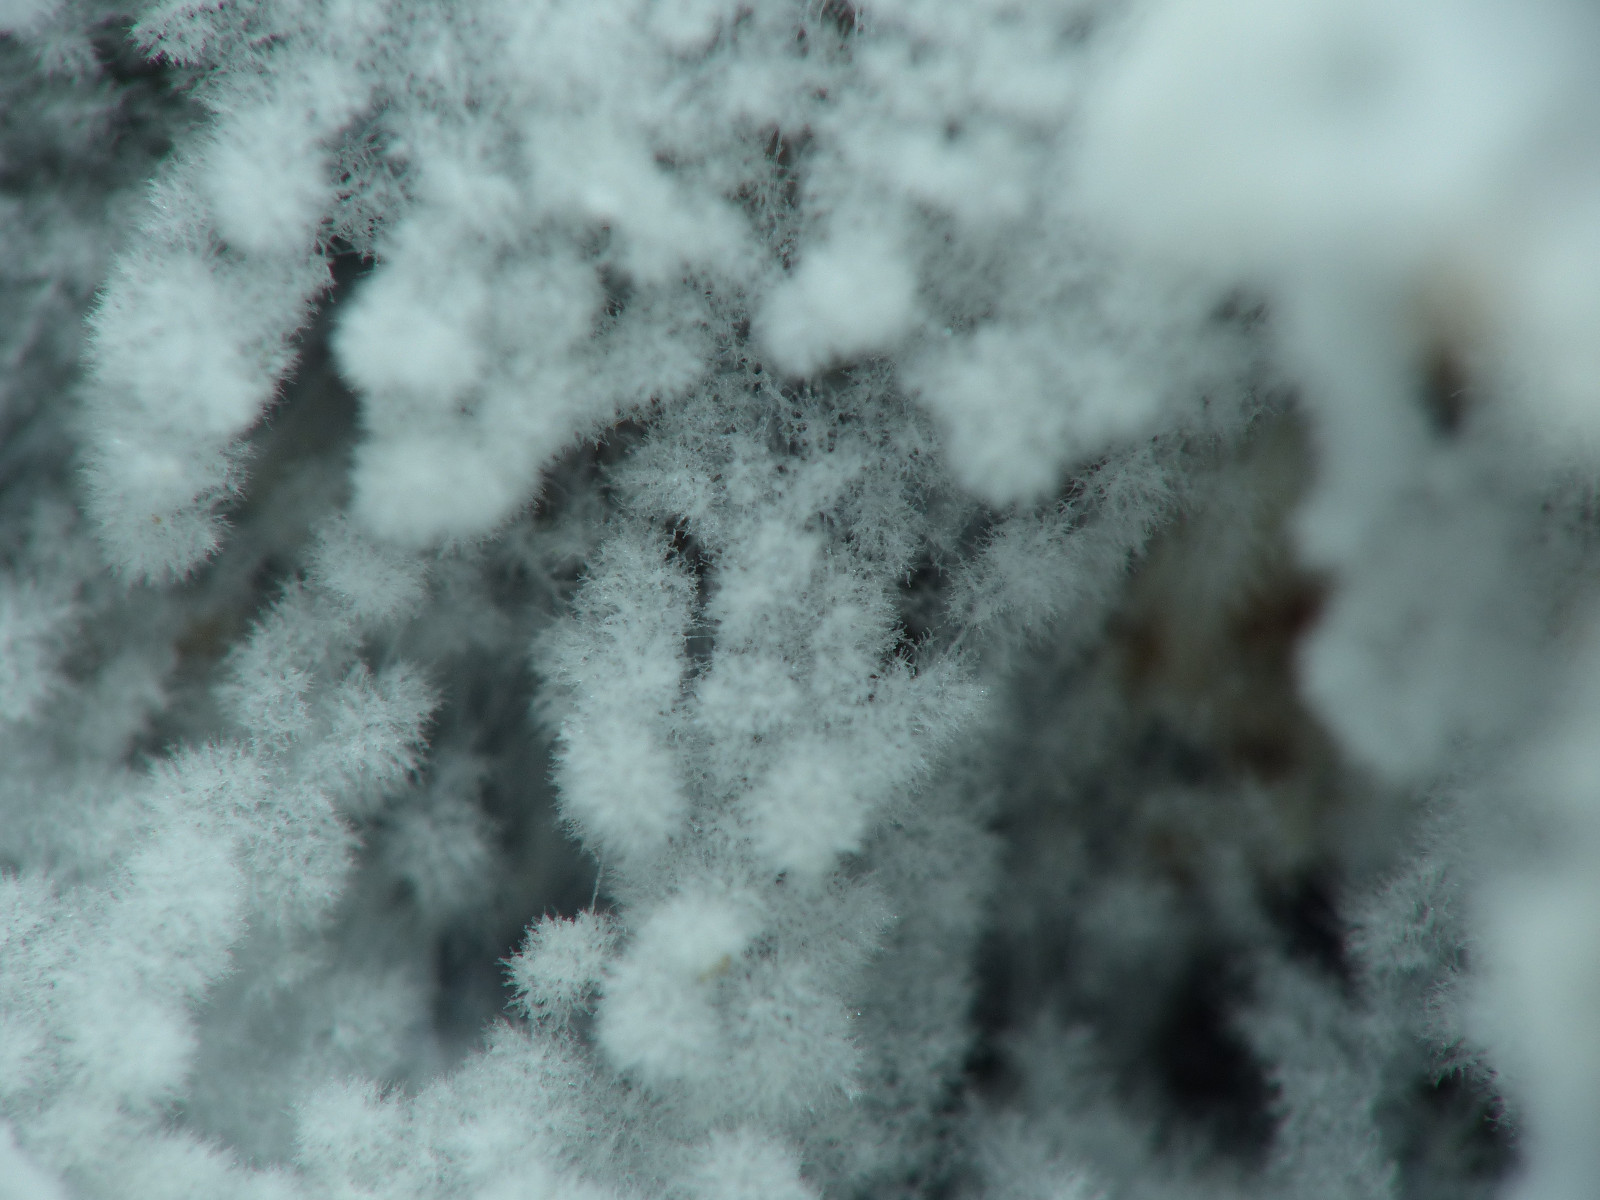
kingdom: Fungi
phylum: Ascomycota
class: Sordariomycetes
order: Hypocreales
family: Hypocreaceae
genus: Cladobotryum
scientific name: Cladobotryum stereicola
